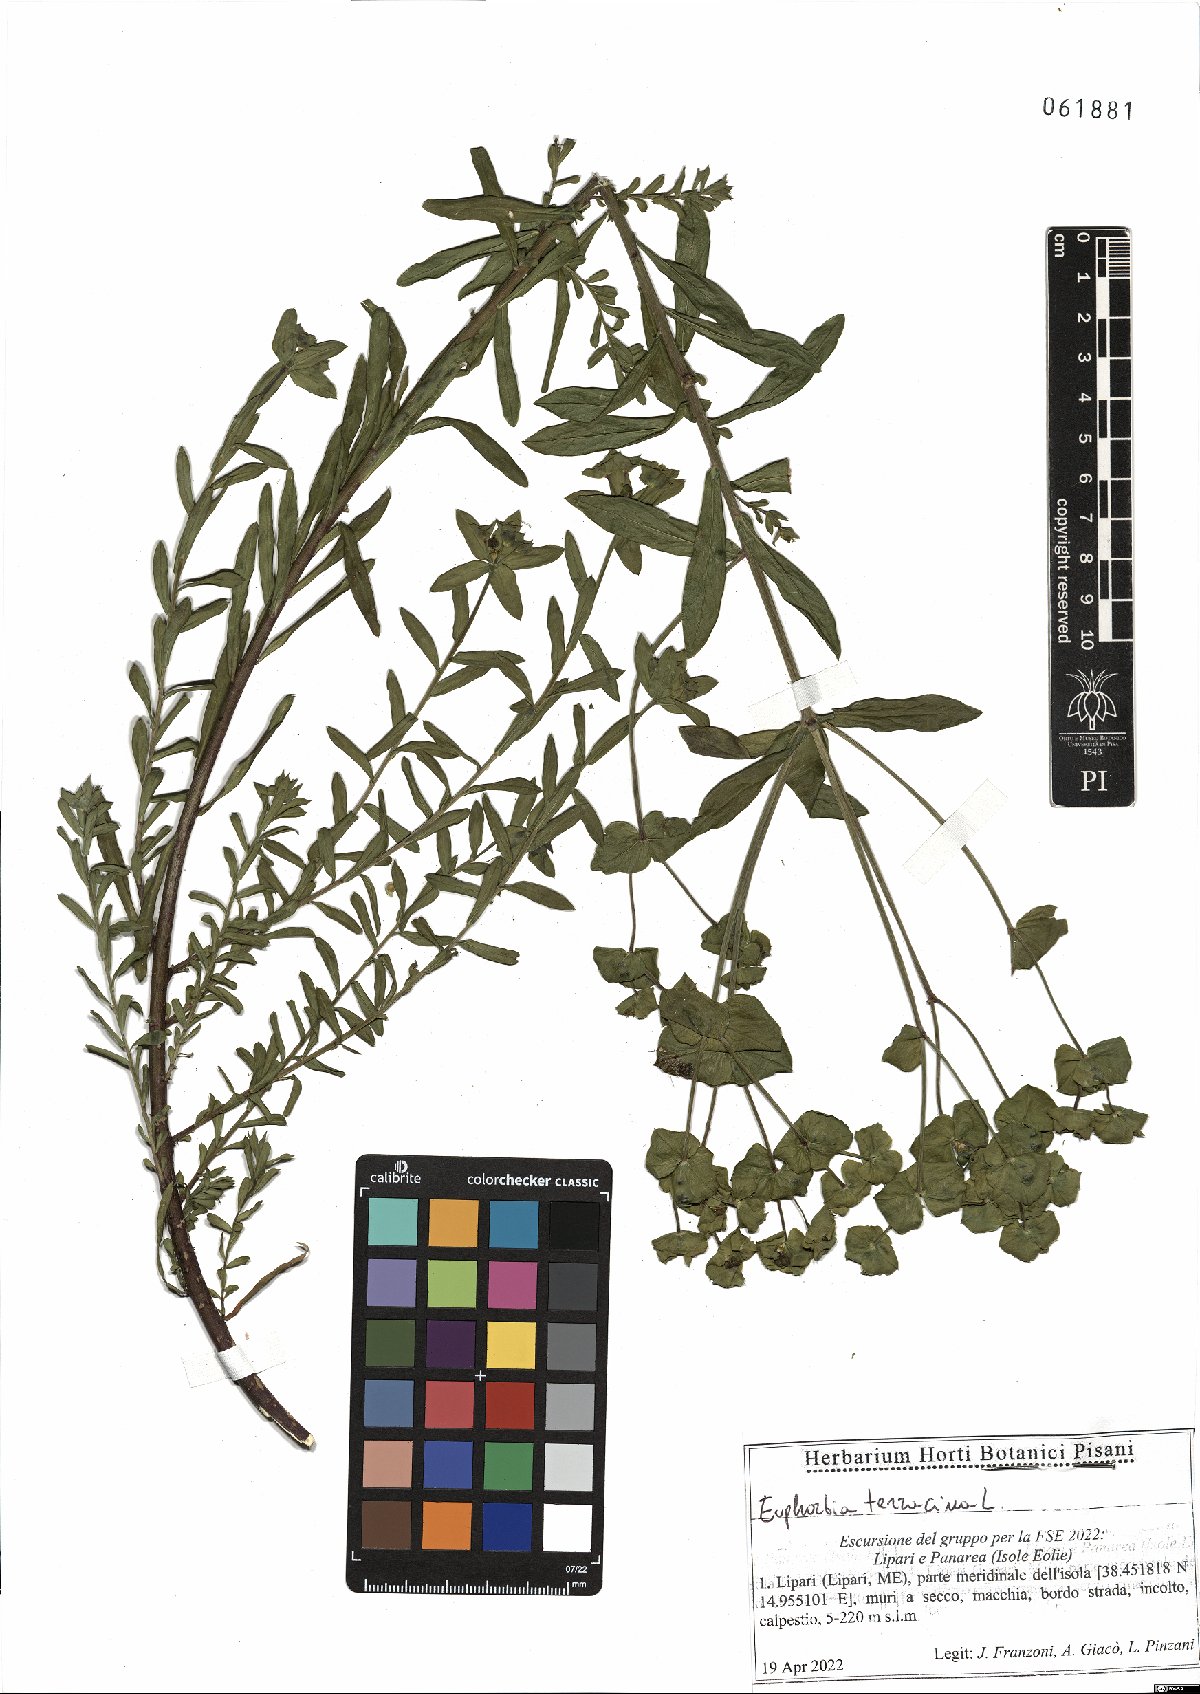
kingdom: Plantae
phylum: Tracheophyta
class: Magnoliopsida
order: Malpighiales
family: Euphorbiaceae
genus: Euphorbia
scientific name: Euphorbia terracina
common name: Geraldton carnation weed
